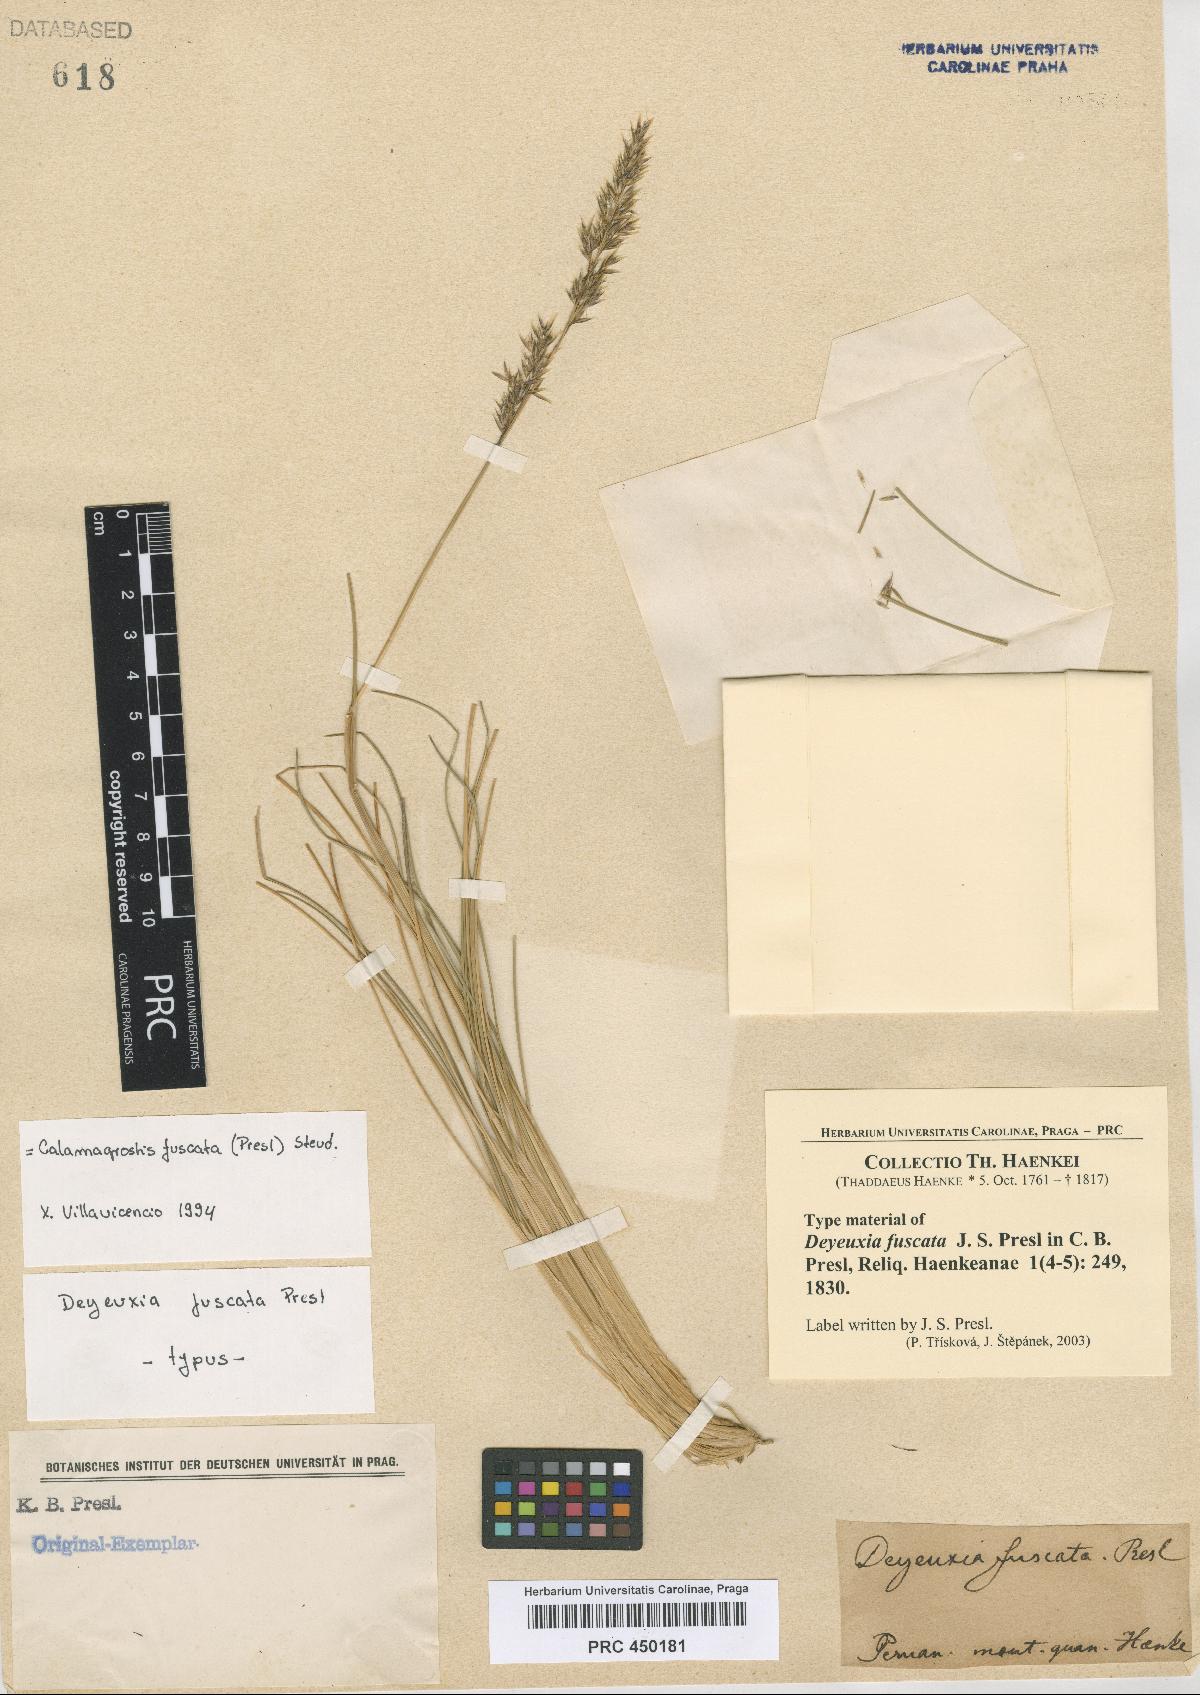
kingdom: Plantae
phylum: Tracheophyta
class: Liliopsida
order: Poales
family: Poaceae
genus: Cinnagrostis
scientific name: Cinnagrostis fuscata
